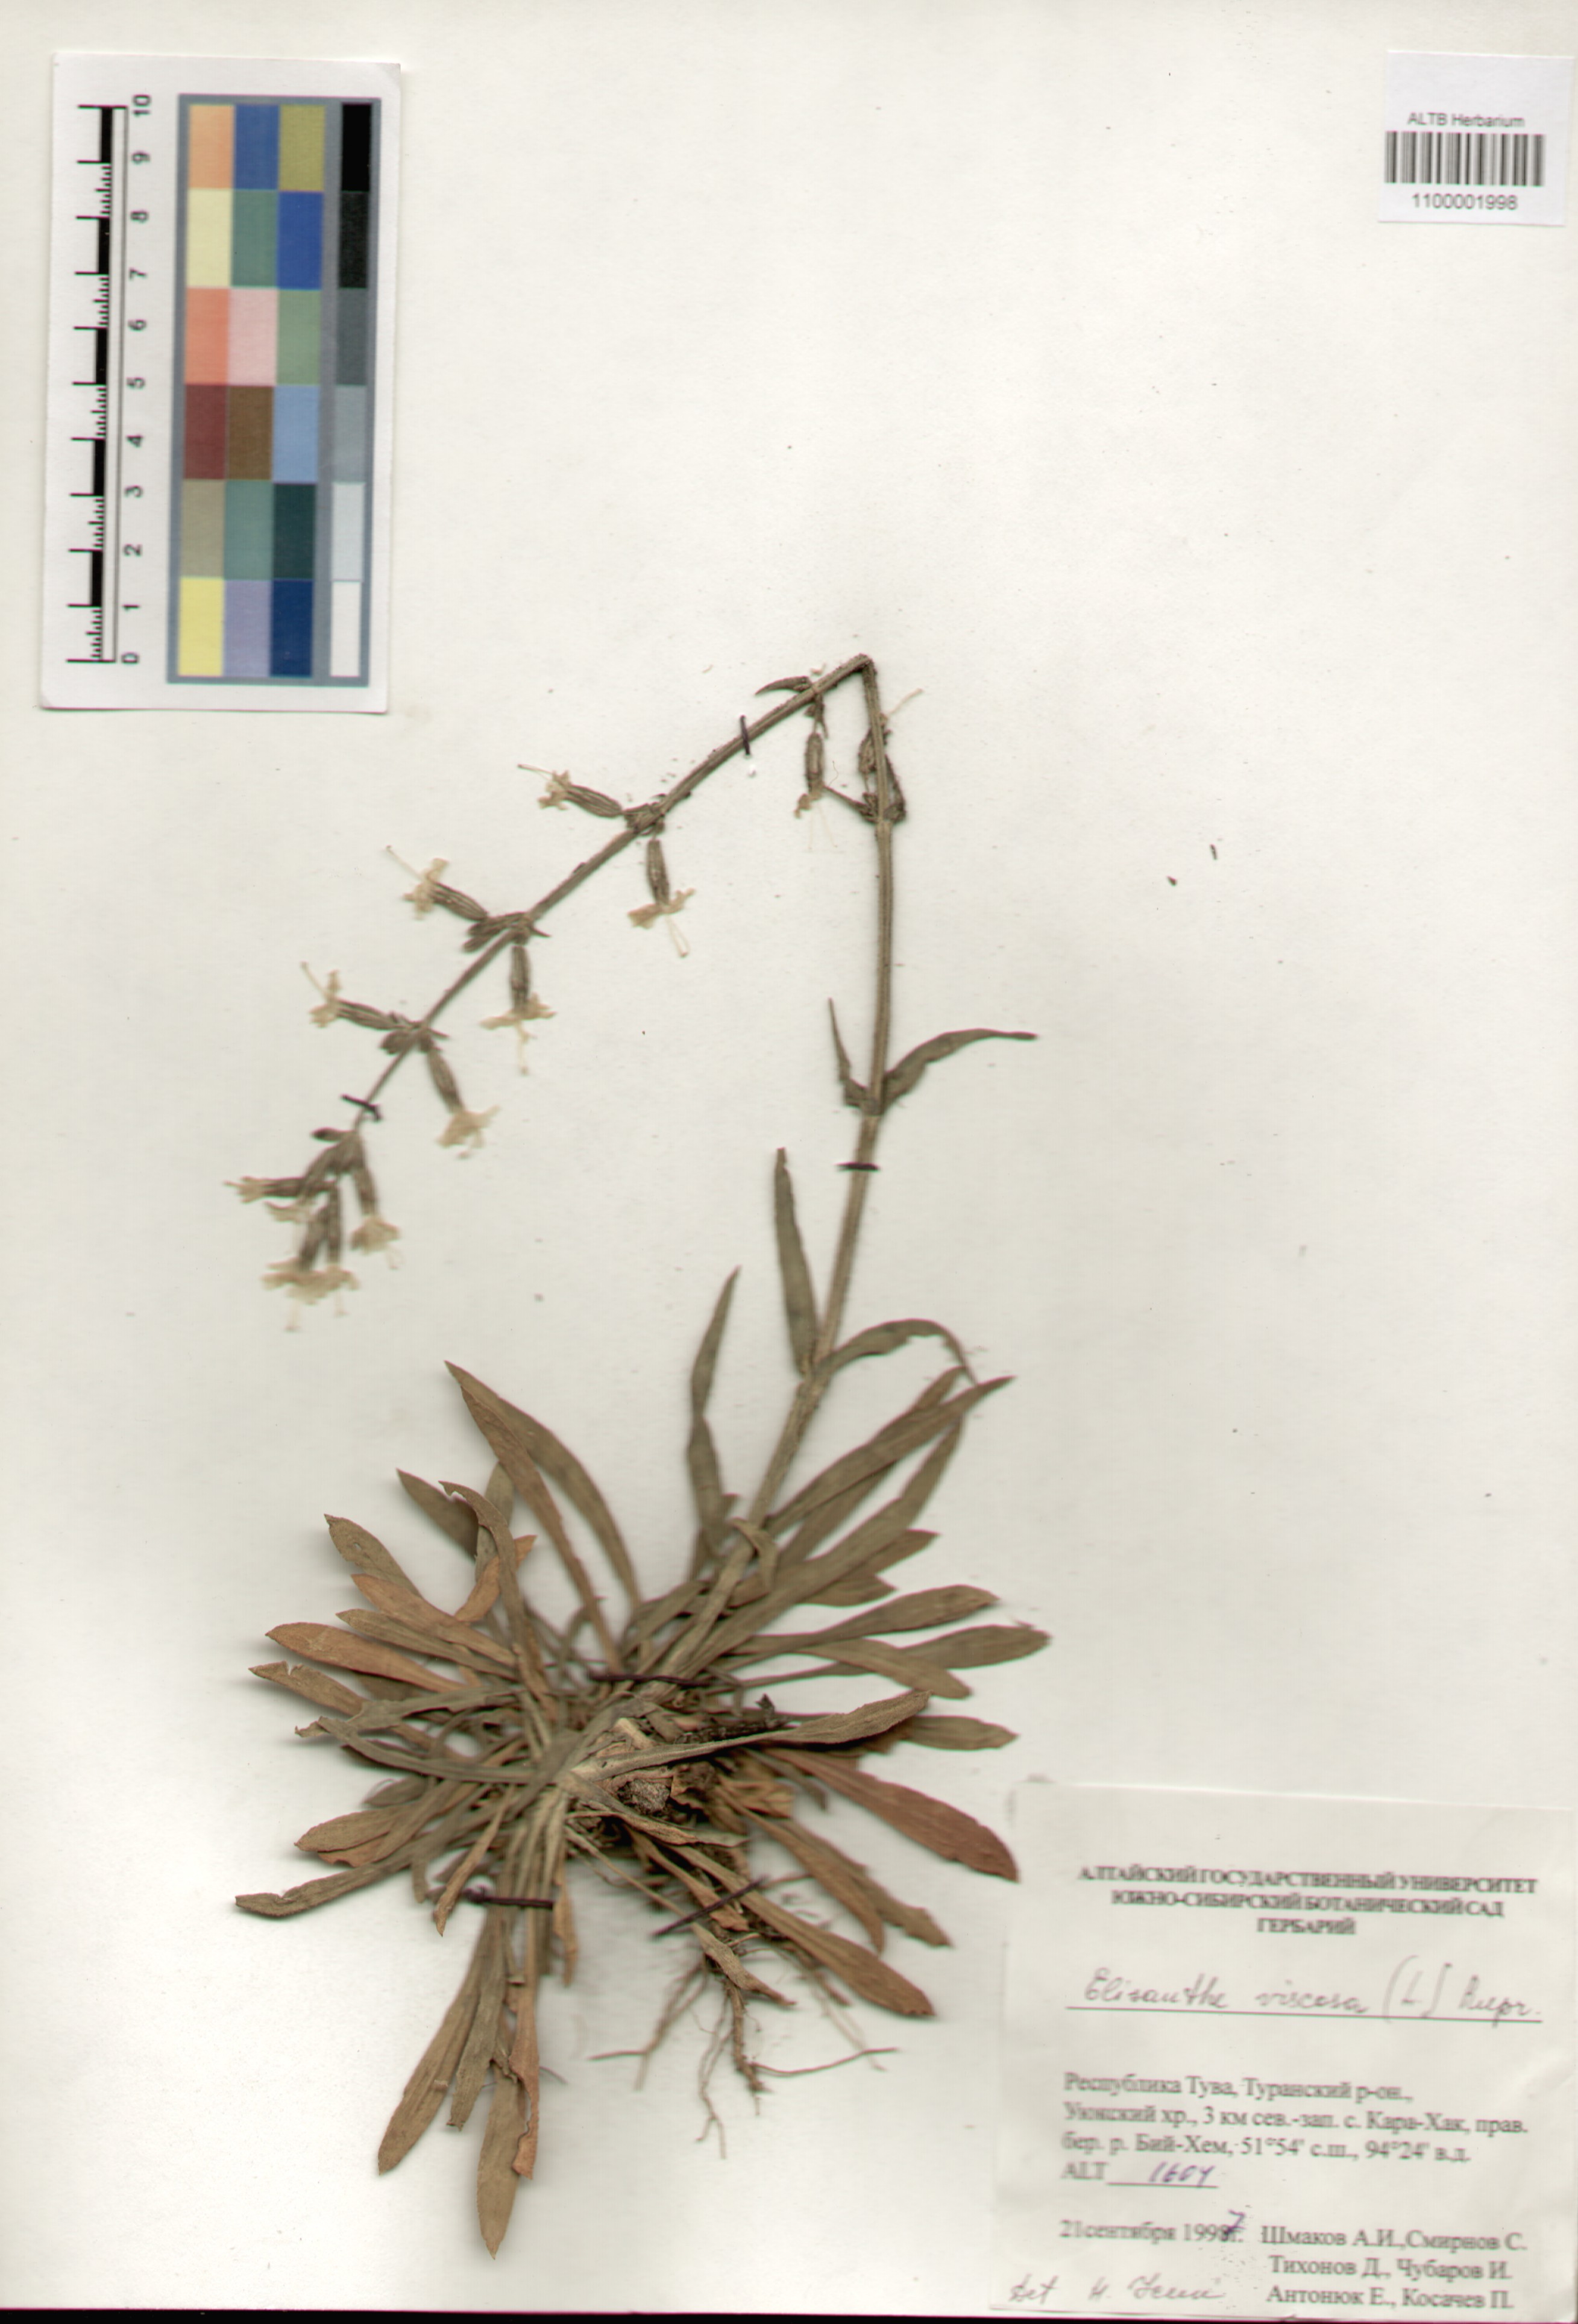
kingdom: Plantae
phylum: Tracheophyta
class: Magnoliopsida
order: Caryophyllales
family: Caryophyllaceae
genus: Silene
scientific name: Silene viscosa
